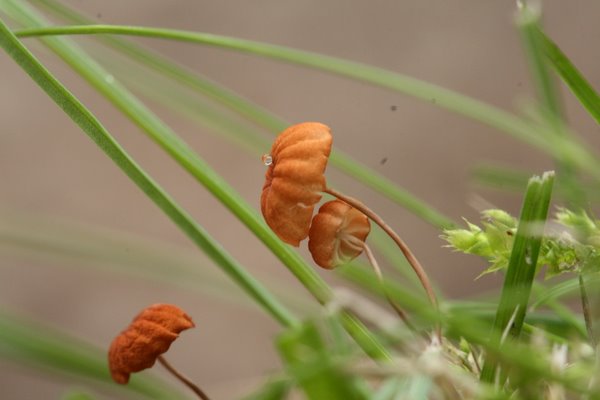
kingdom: Fungi
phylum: Basidiomycota
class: Agaricomycetes
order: Agaricales
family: Marasmiaceae
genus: Marasmius
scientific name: Marasmius curreyi
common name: teglrød bruskhat
